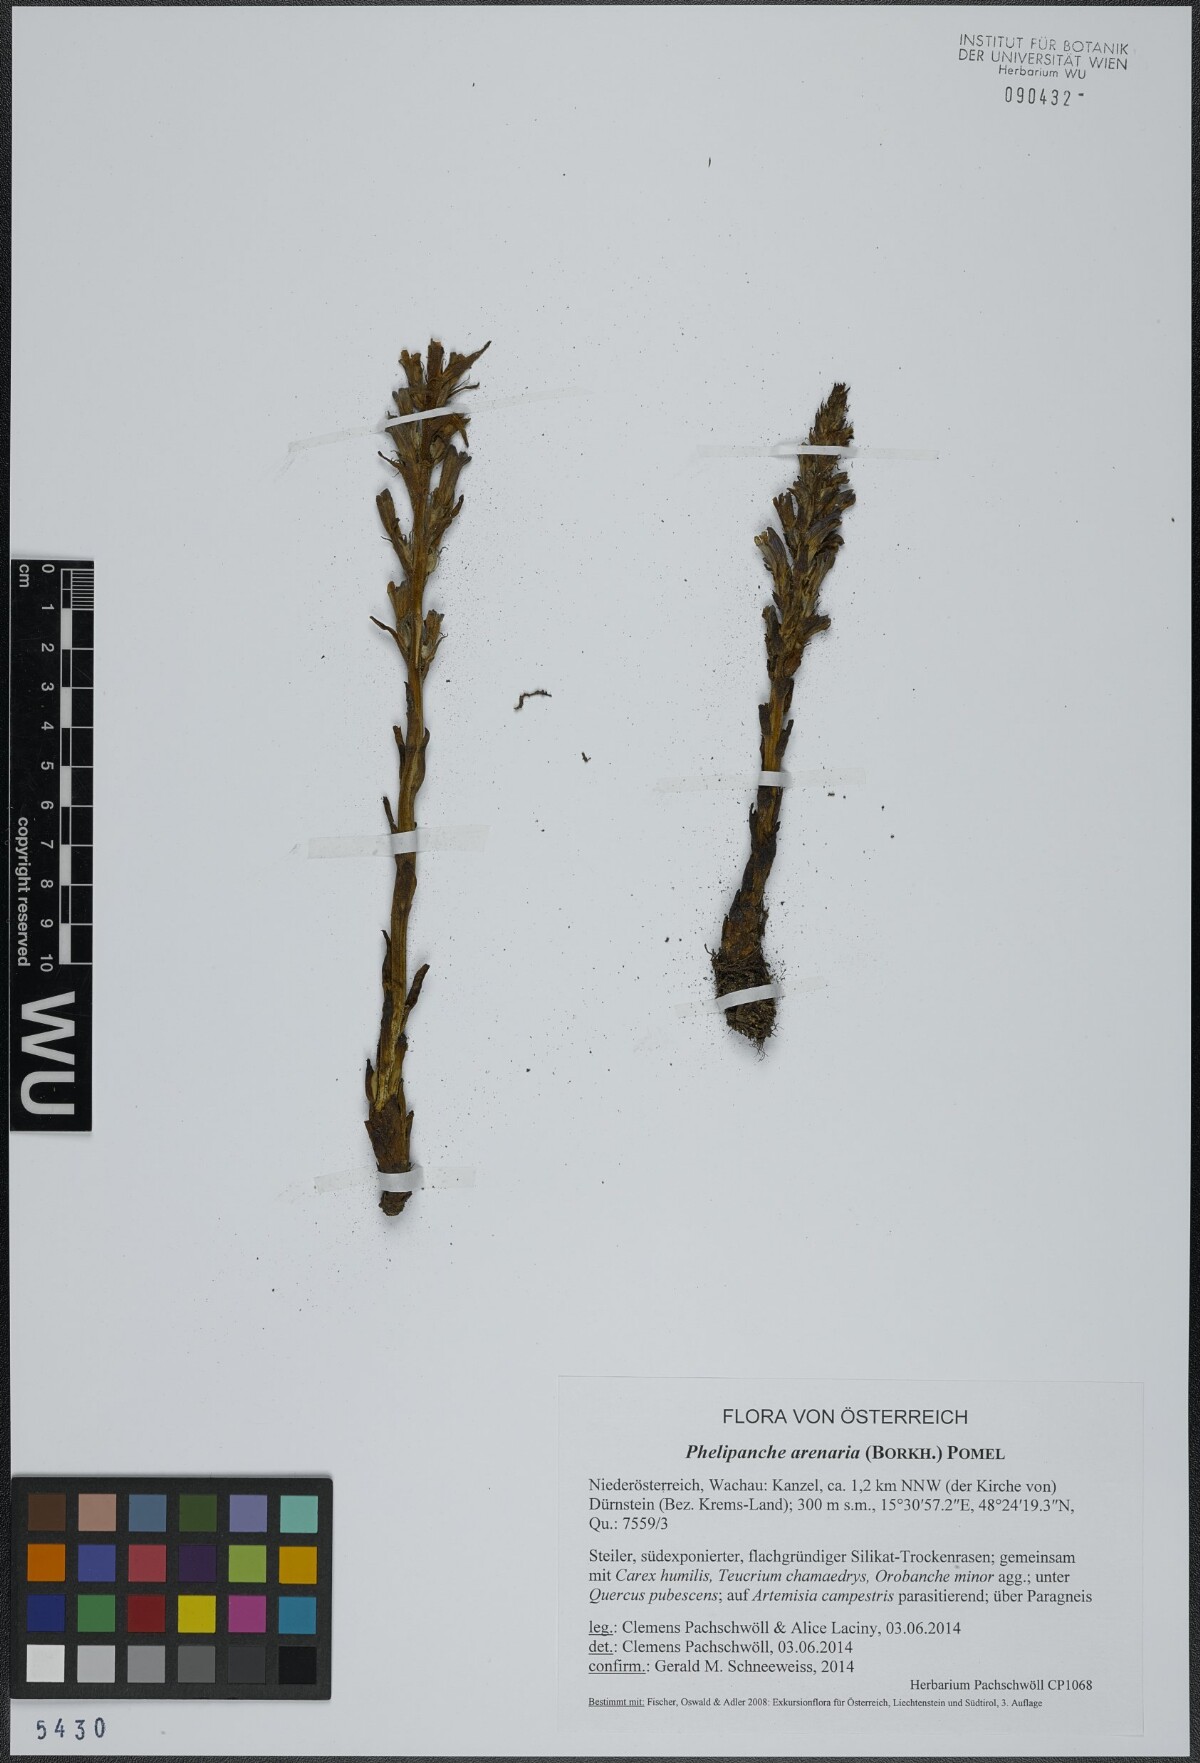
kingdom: Plantae
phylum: Tracheophyta
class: Magnoliopsida
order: Lamiales
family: Orobanchaceae
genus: Phelipanche
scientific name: Phelipanche arenaria
